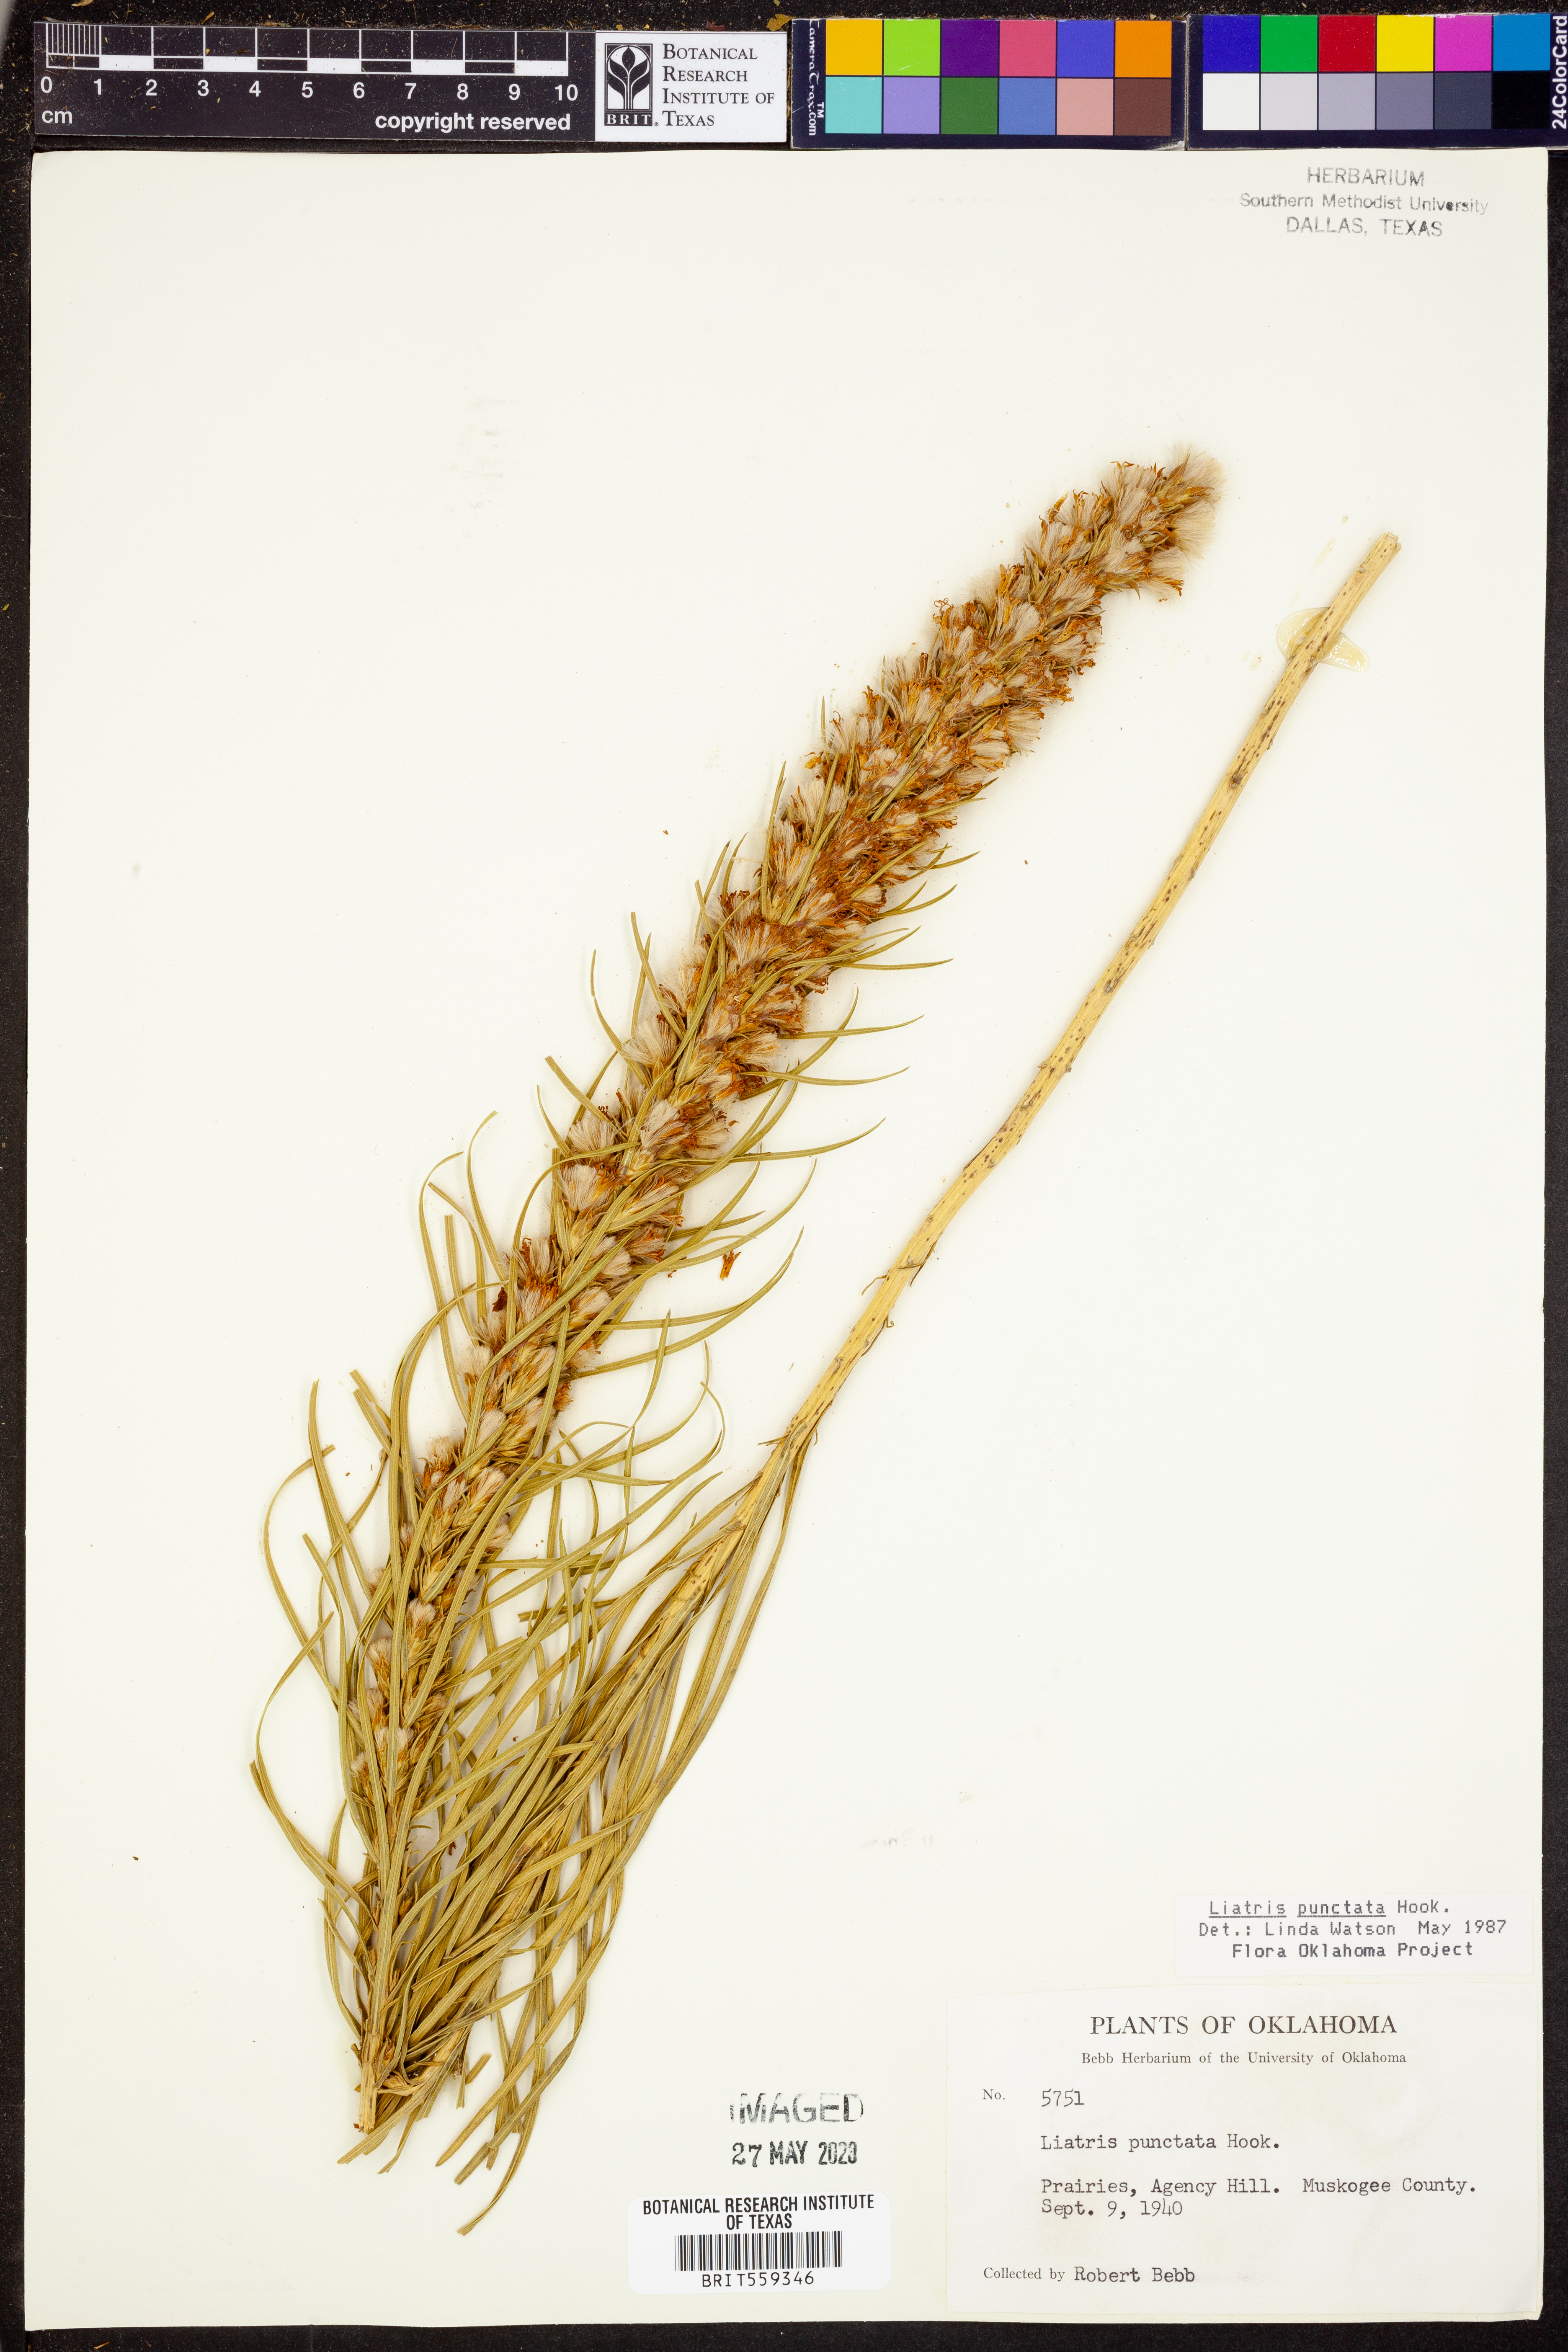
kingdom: Plantae
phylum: Tracheophyta
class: Magnoliopsida
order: Asterales
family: Asteraceae
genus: Liatris
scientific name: Liatris punctata
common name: Dotted gayfeather
